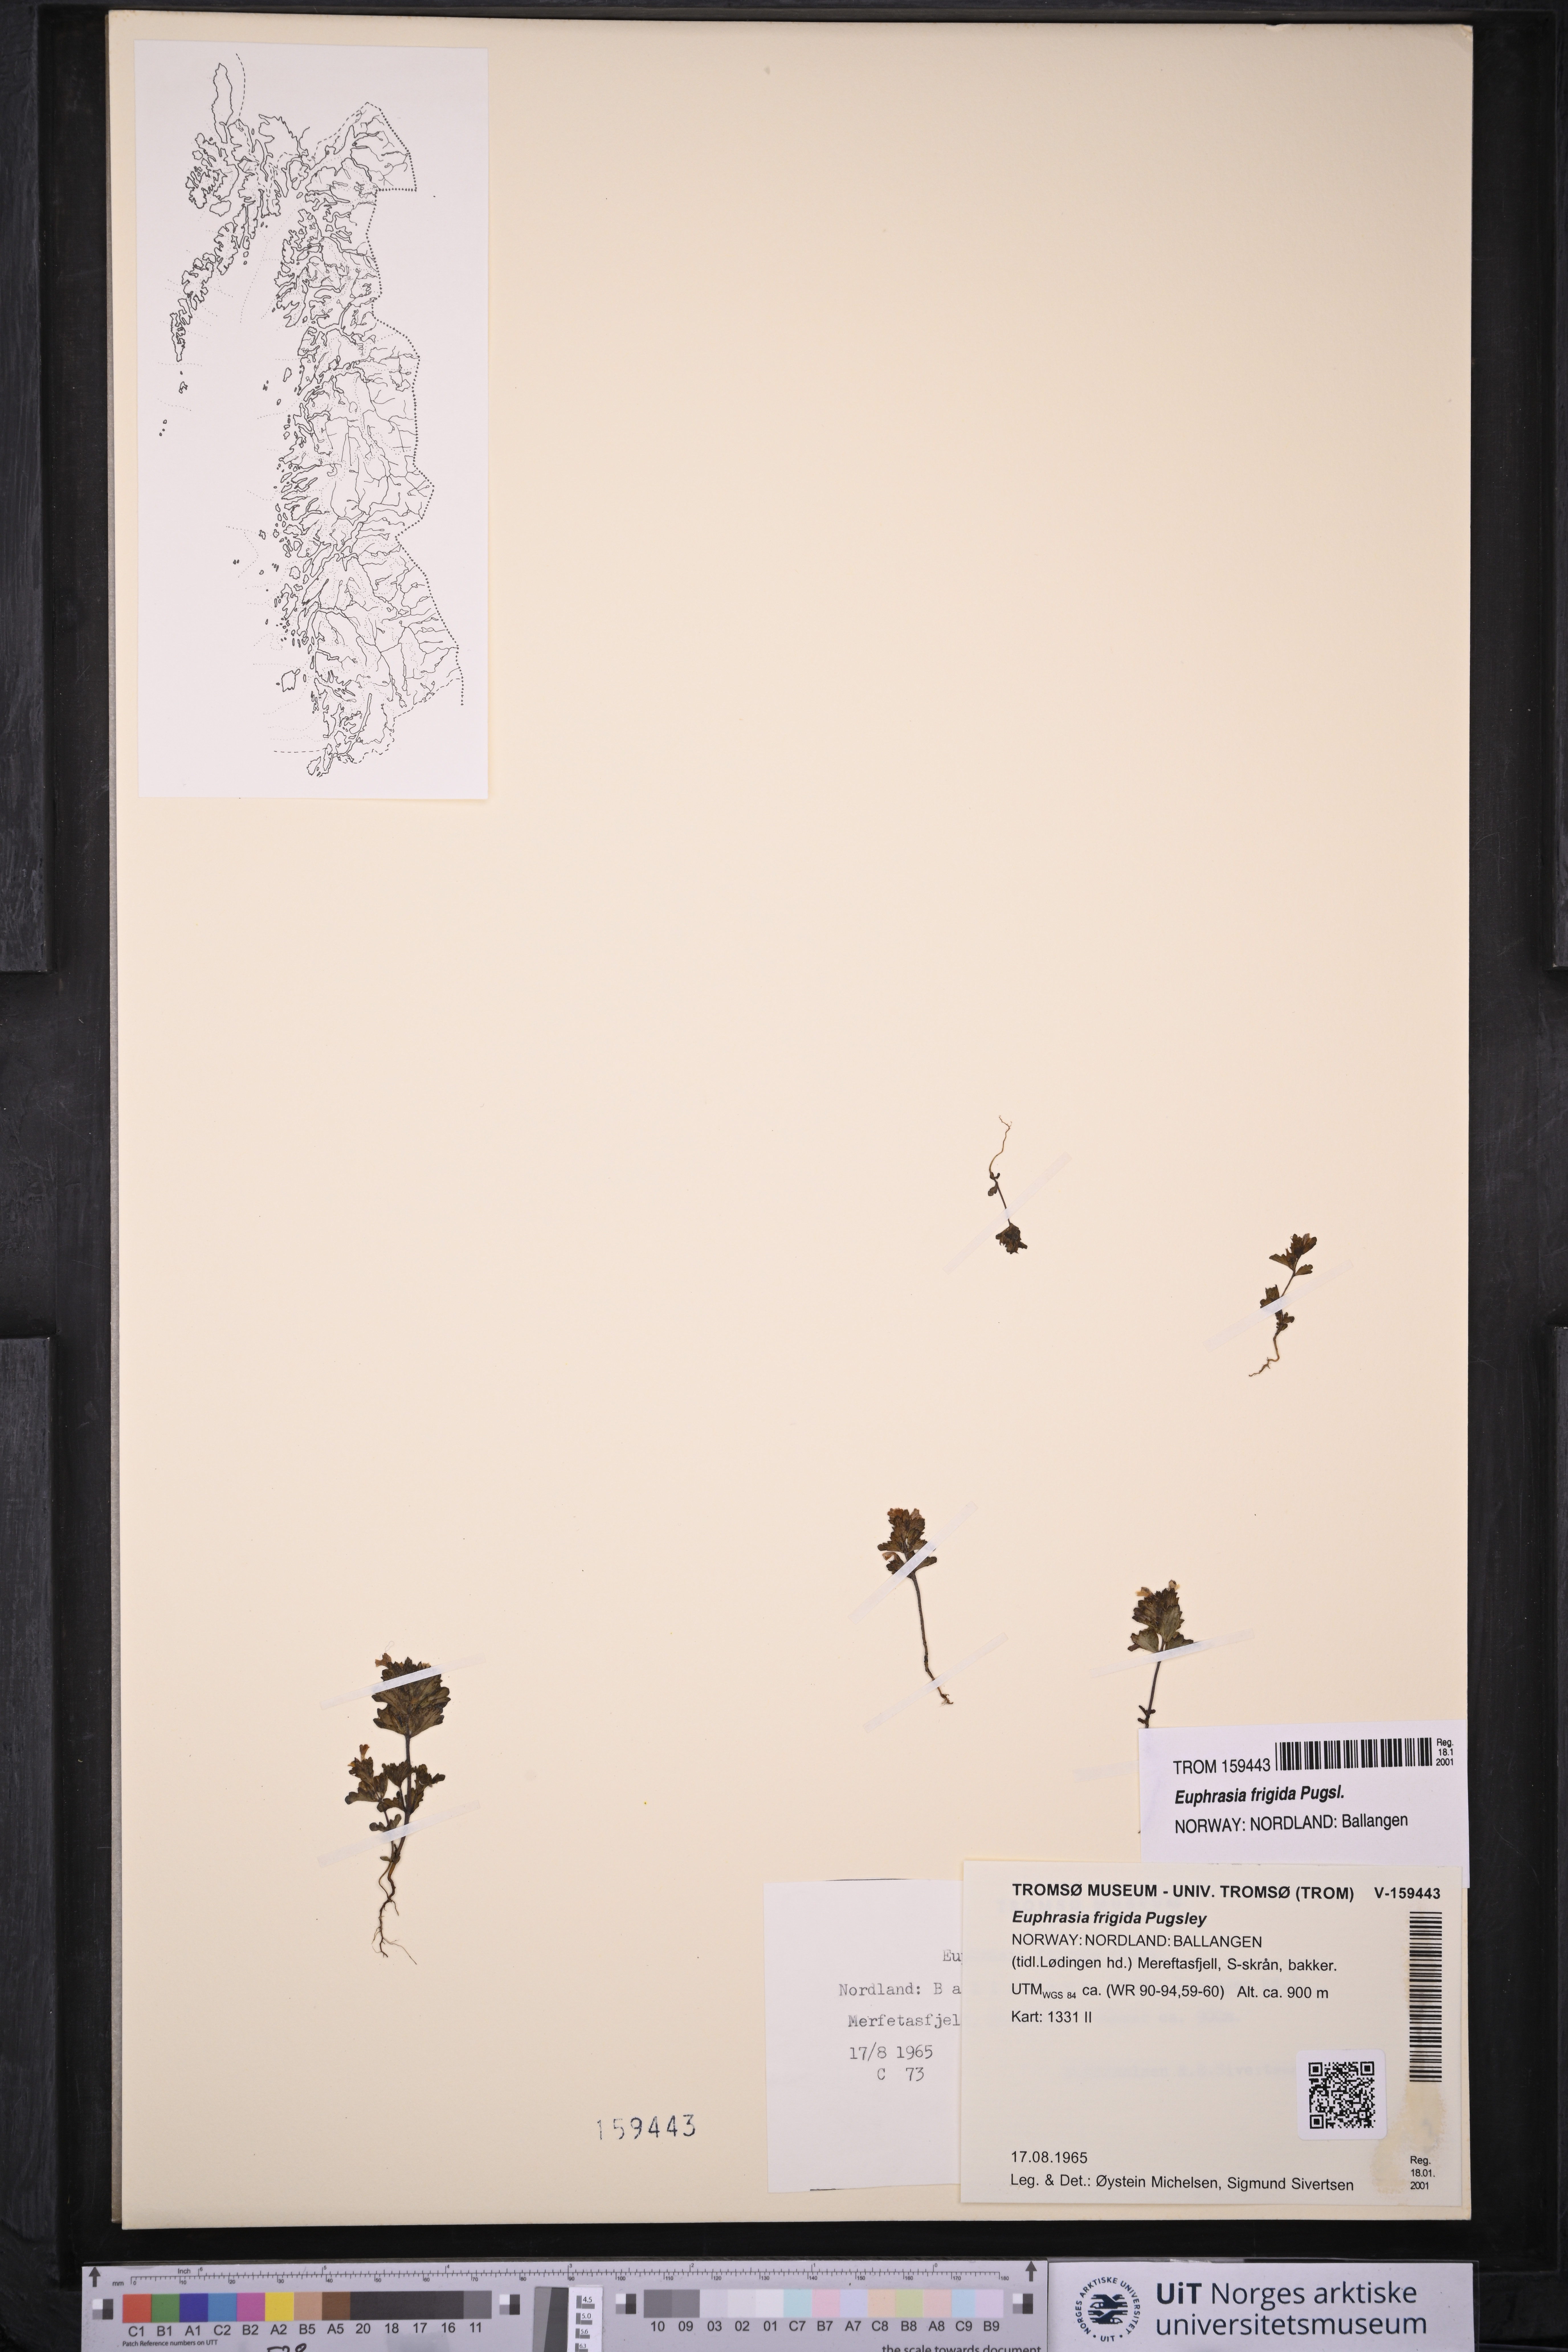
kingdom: Plantae
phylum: Tracheophyta
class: Magnoliopsida
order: Lamiales
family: Orobanchaceae
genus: Euphrasia
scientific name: Euphrasia frigida
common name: An eyebright
